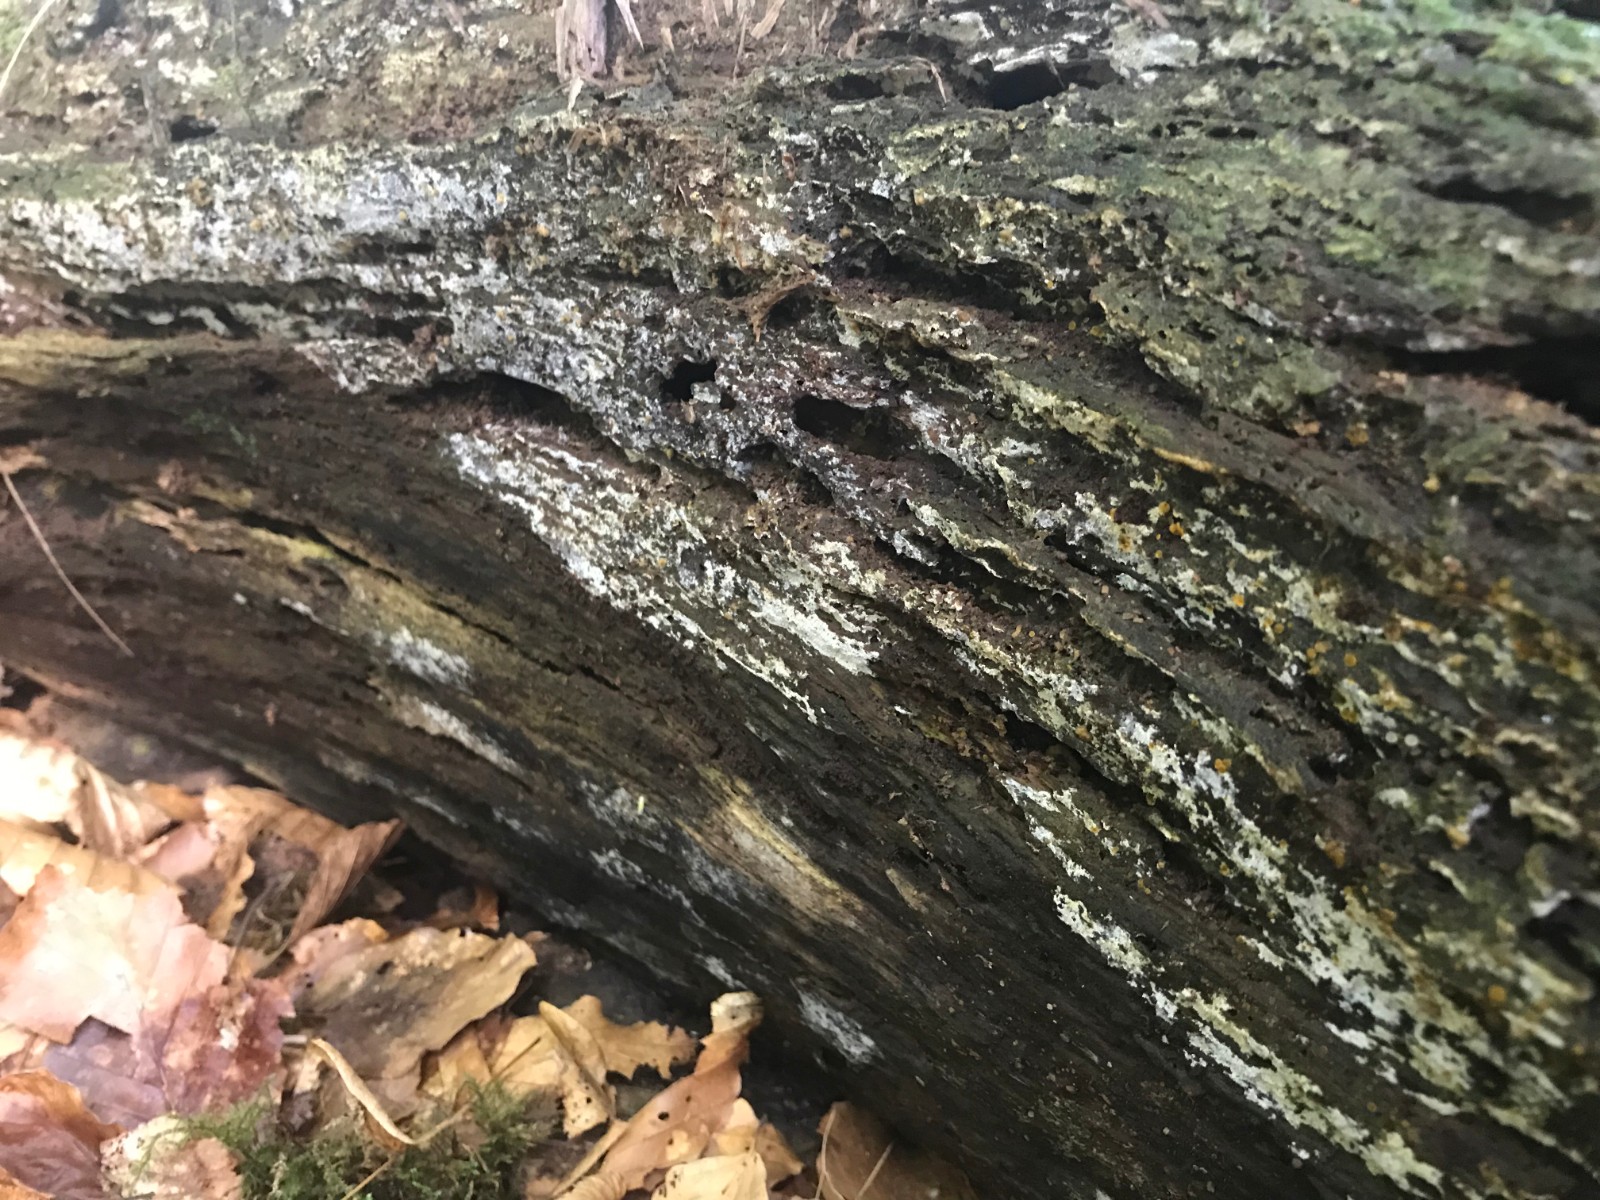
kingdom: Fungi
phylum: Basidiomycota
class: Agaricomycetes
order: Cantharellales
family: Botryobasidiaceae
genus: Botryobasidium
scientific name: Botryobasidium aureum
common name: gylden spindhinde
